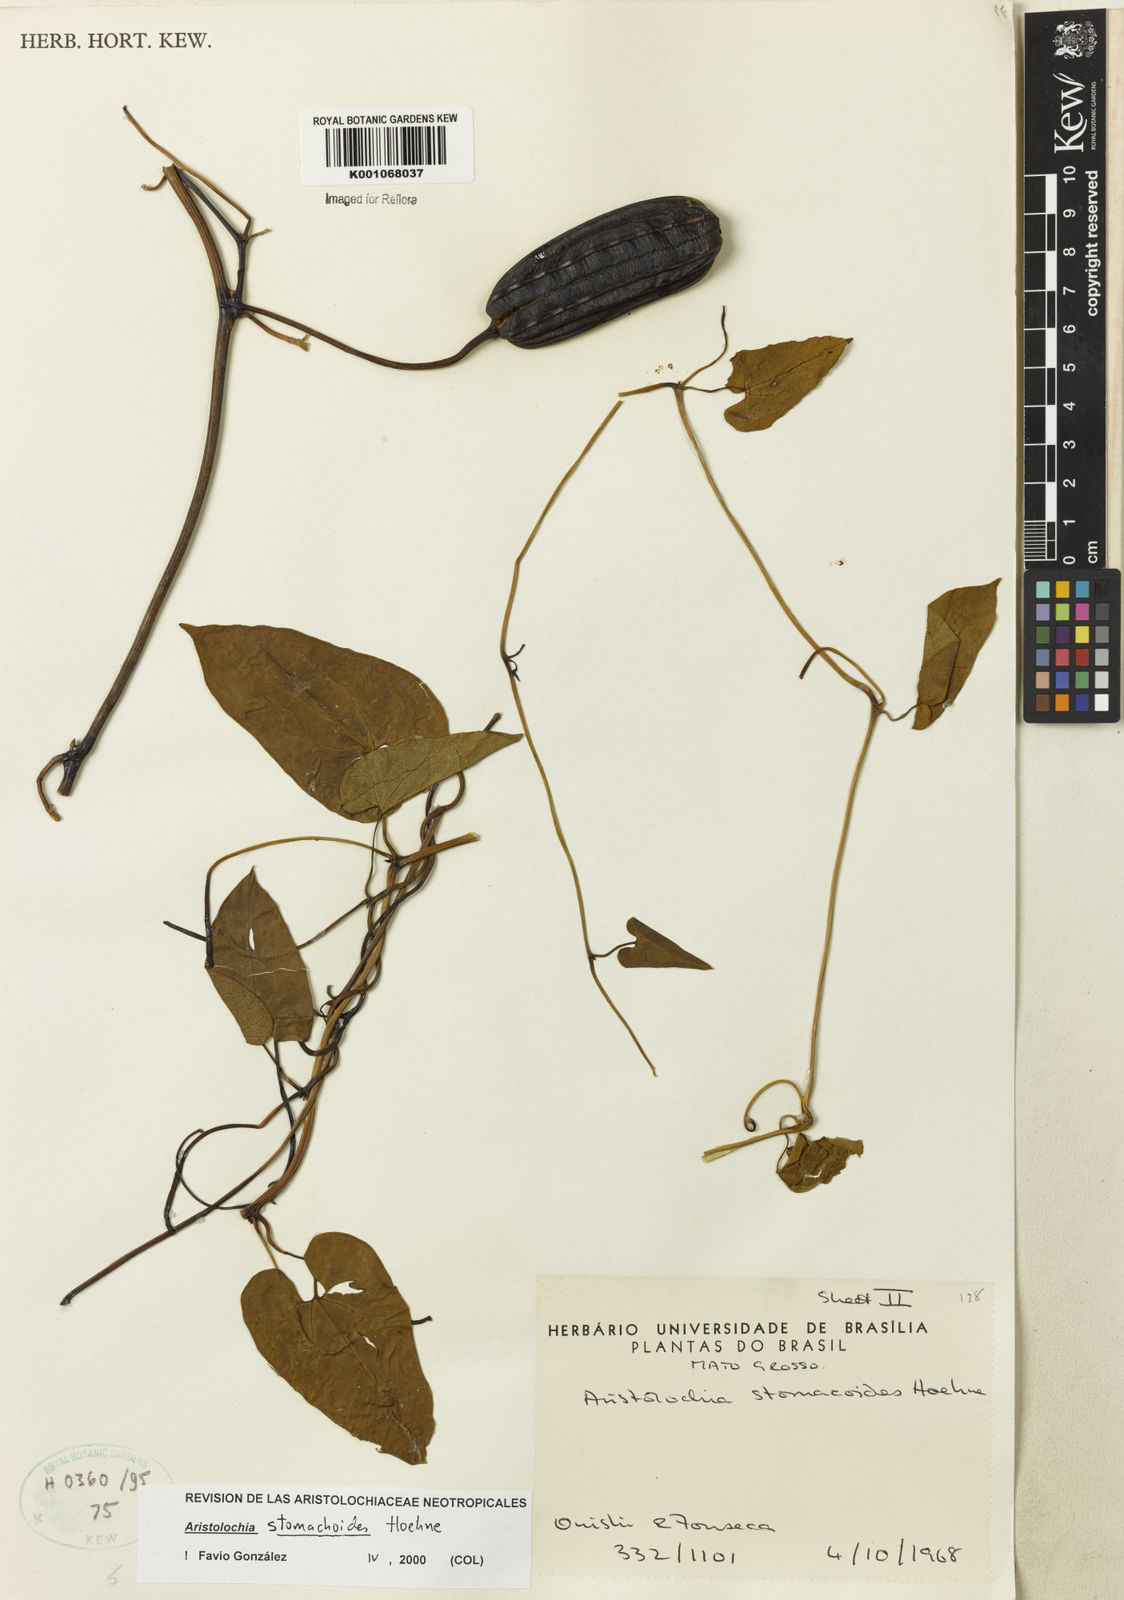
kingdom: Plantae
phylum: Tracheophyta
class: Magnoliopsida
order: Piperales
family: Aristolochiaceae
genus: Aristolochia
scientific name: Aristolochia
